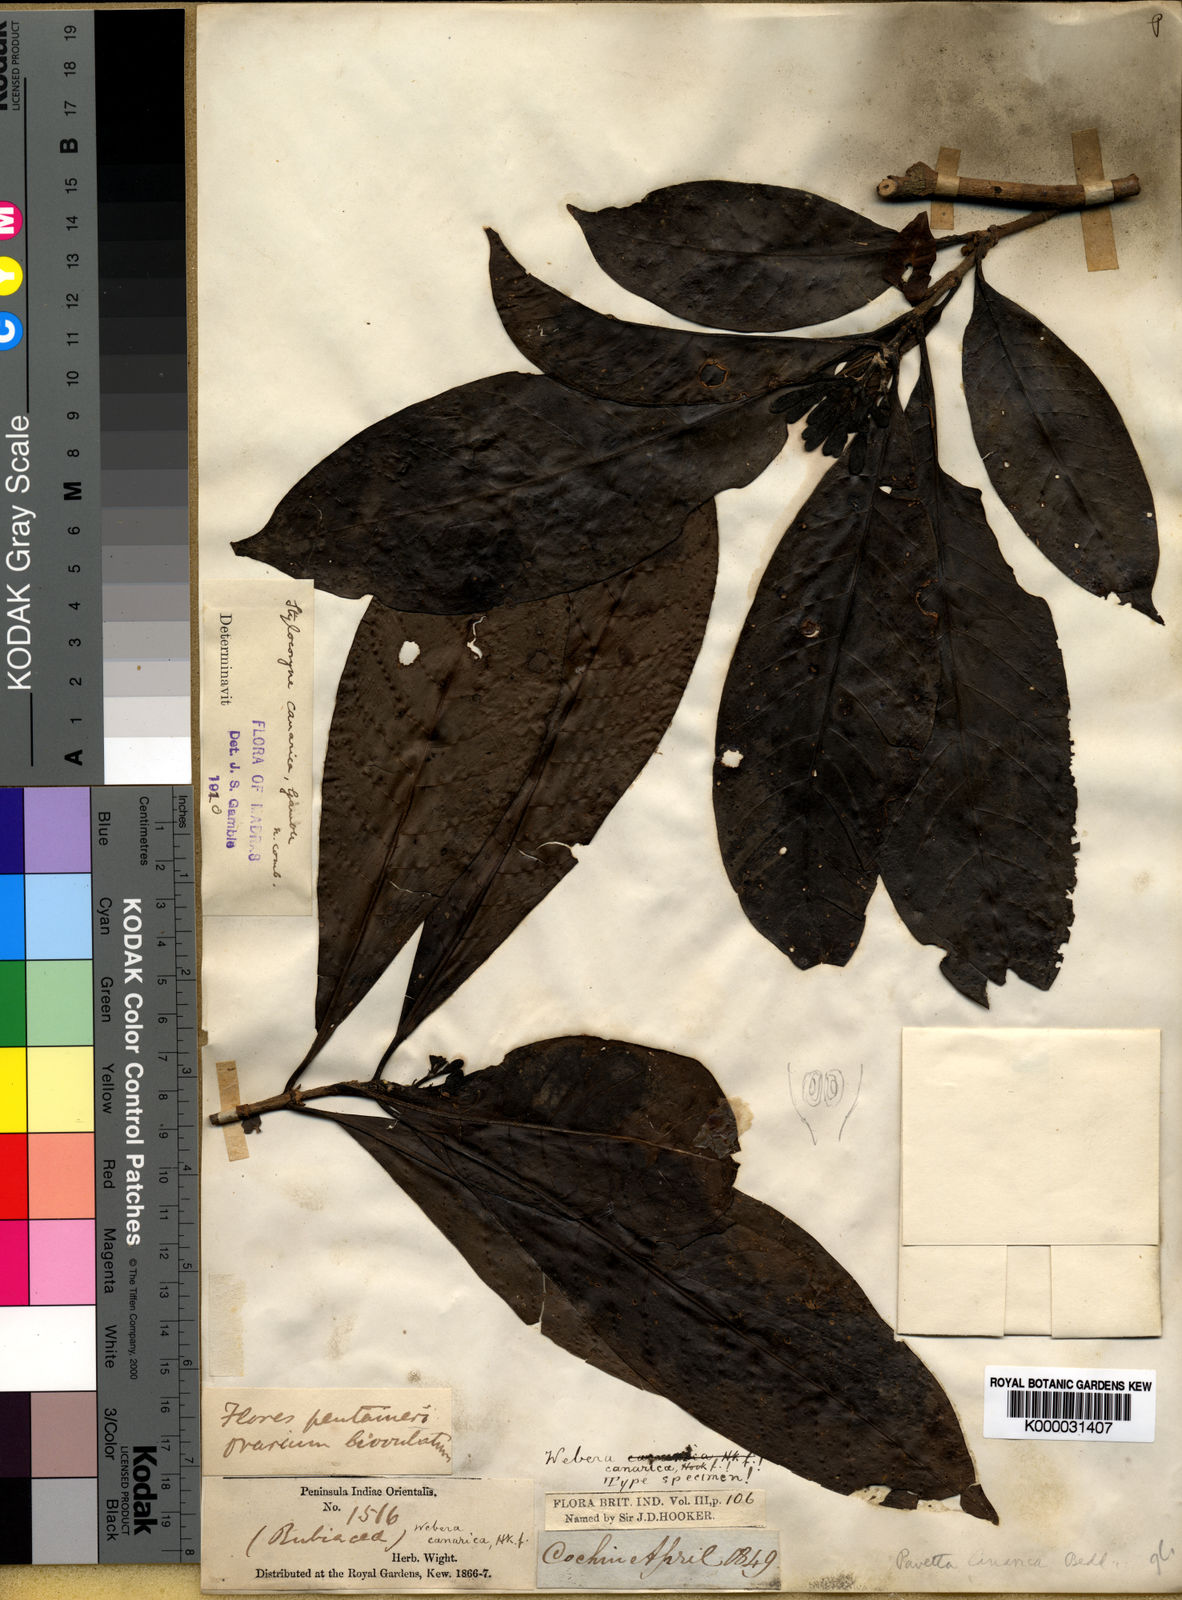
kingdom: Plantae
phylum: Tracheophyta
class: Magnoliopsida
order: Gentianales
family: Rubiaceae
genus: Tarenna
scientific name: Tarenna canarica
